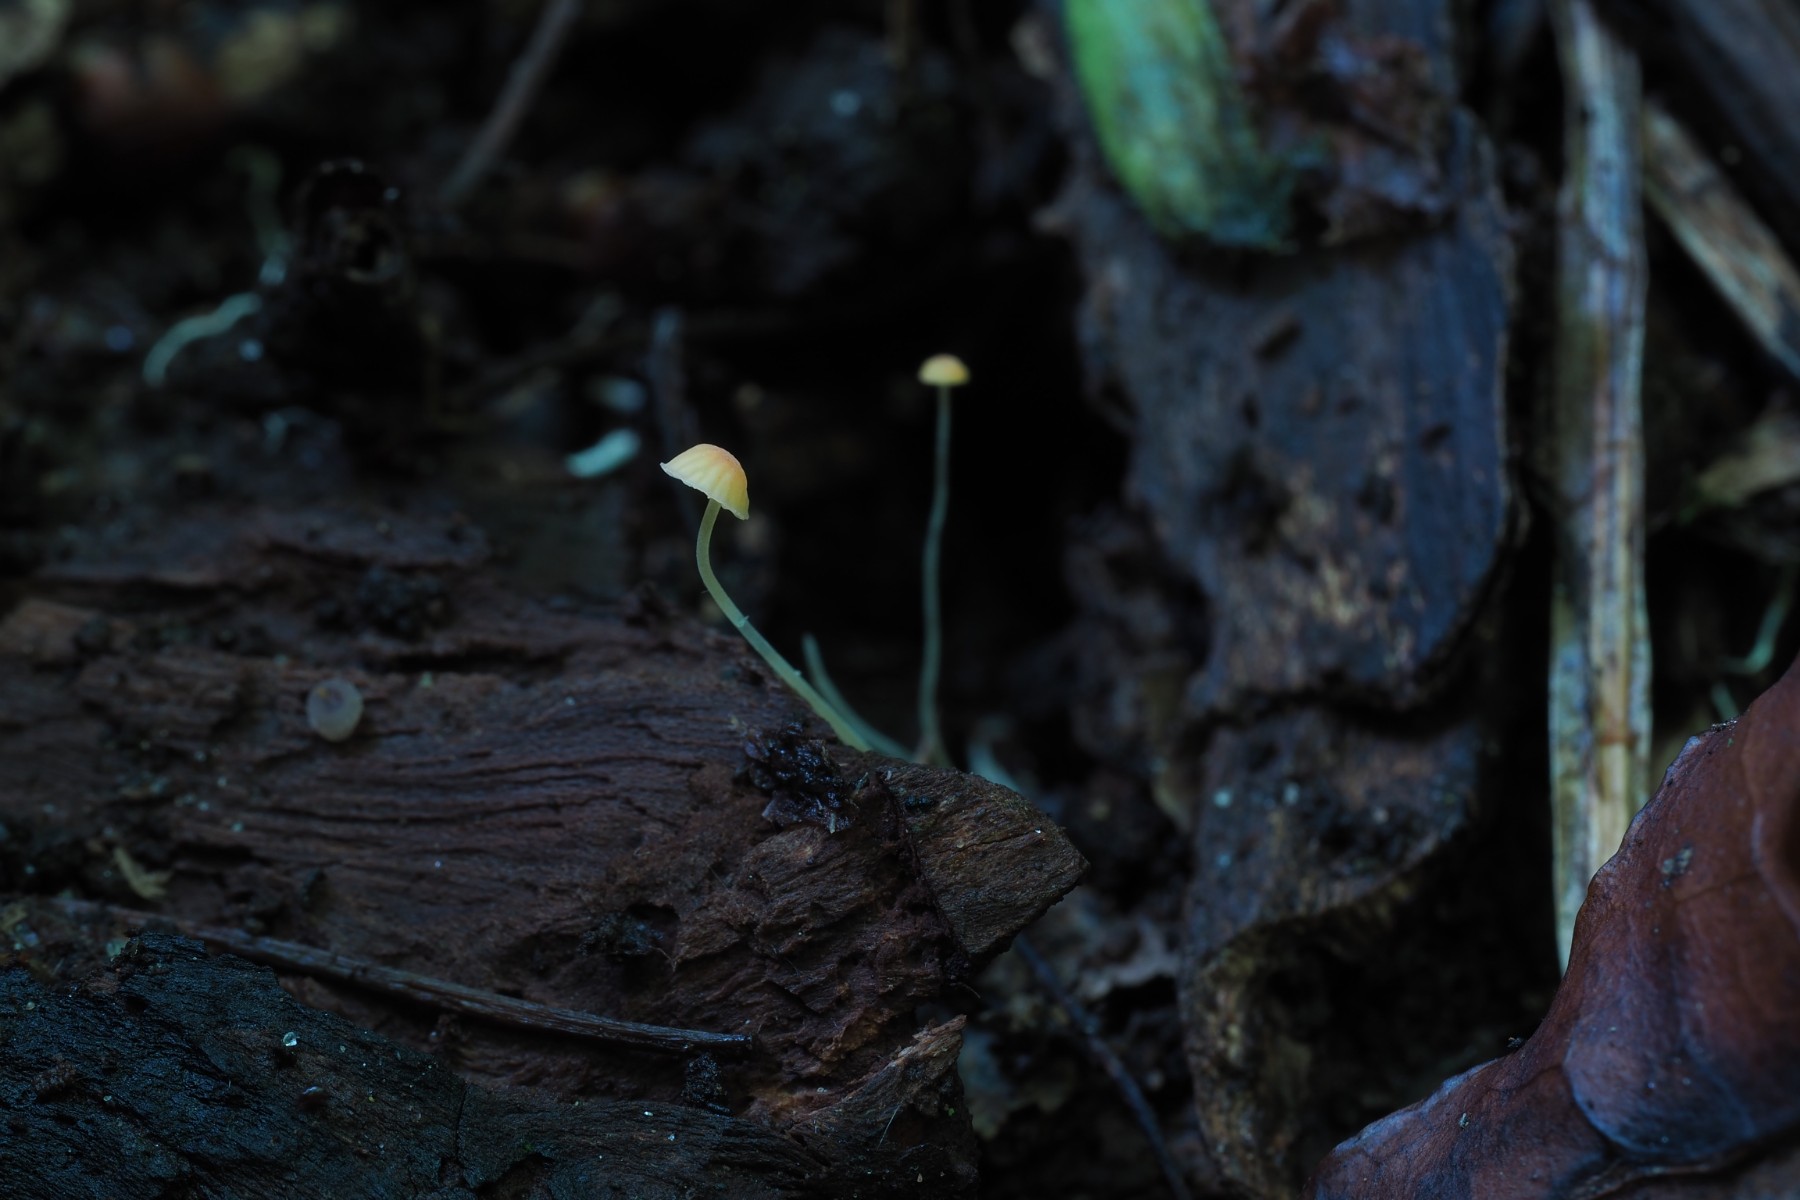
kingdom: Fungi
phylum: Basidiomycota
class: Agaricomycetes
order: Agaricales
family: Mycenaceae
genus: Mycena
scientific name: Mycena acicula
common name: orange huesvamp
